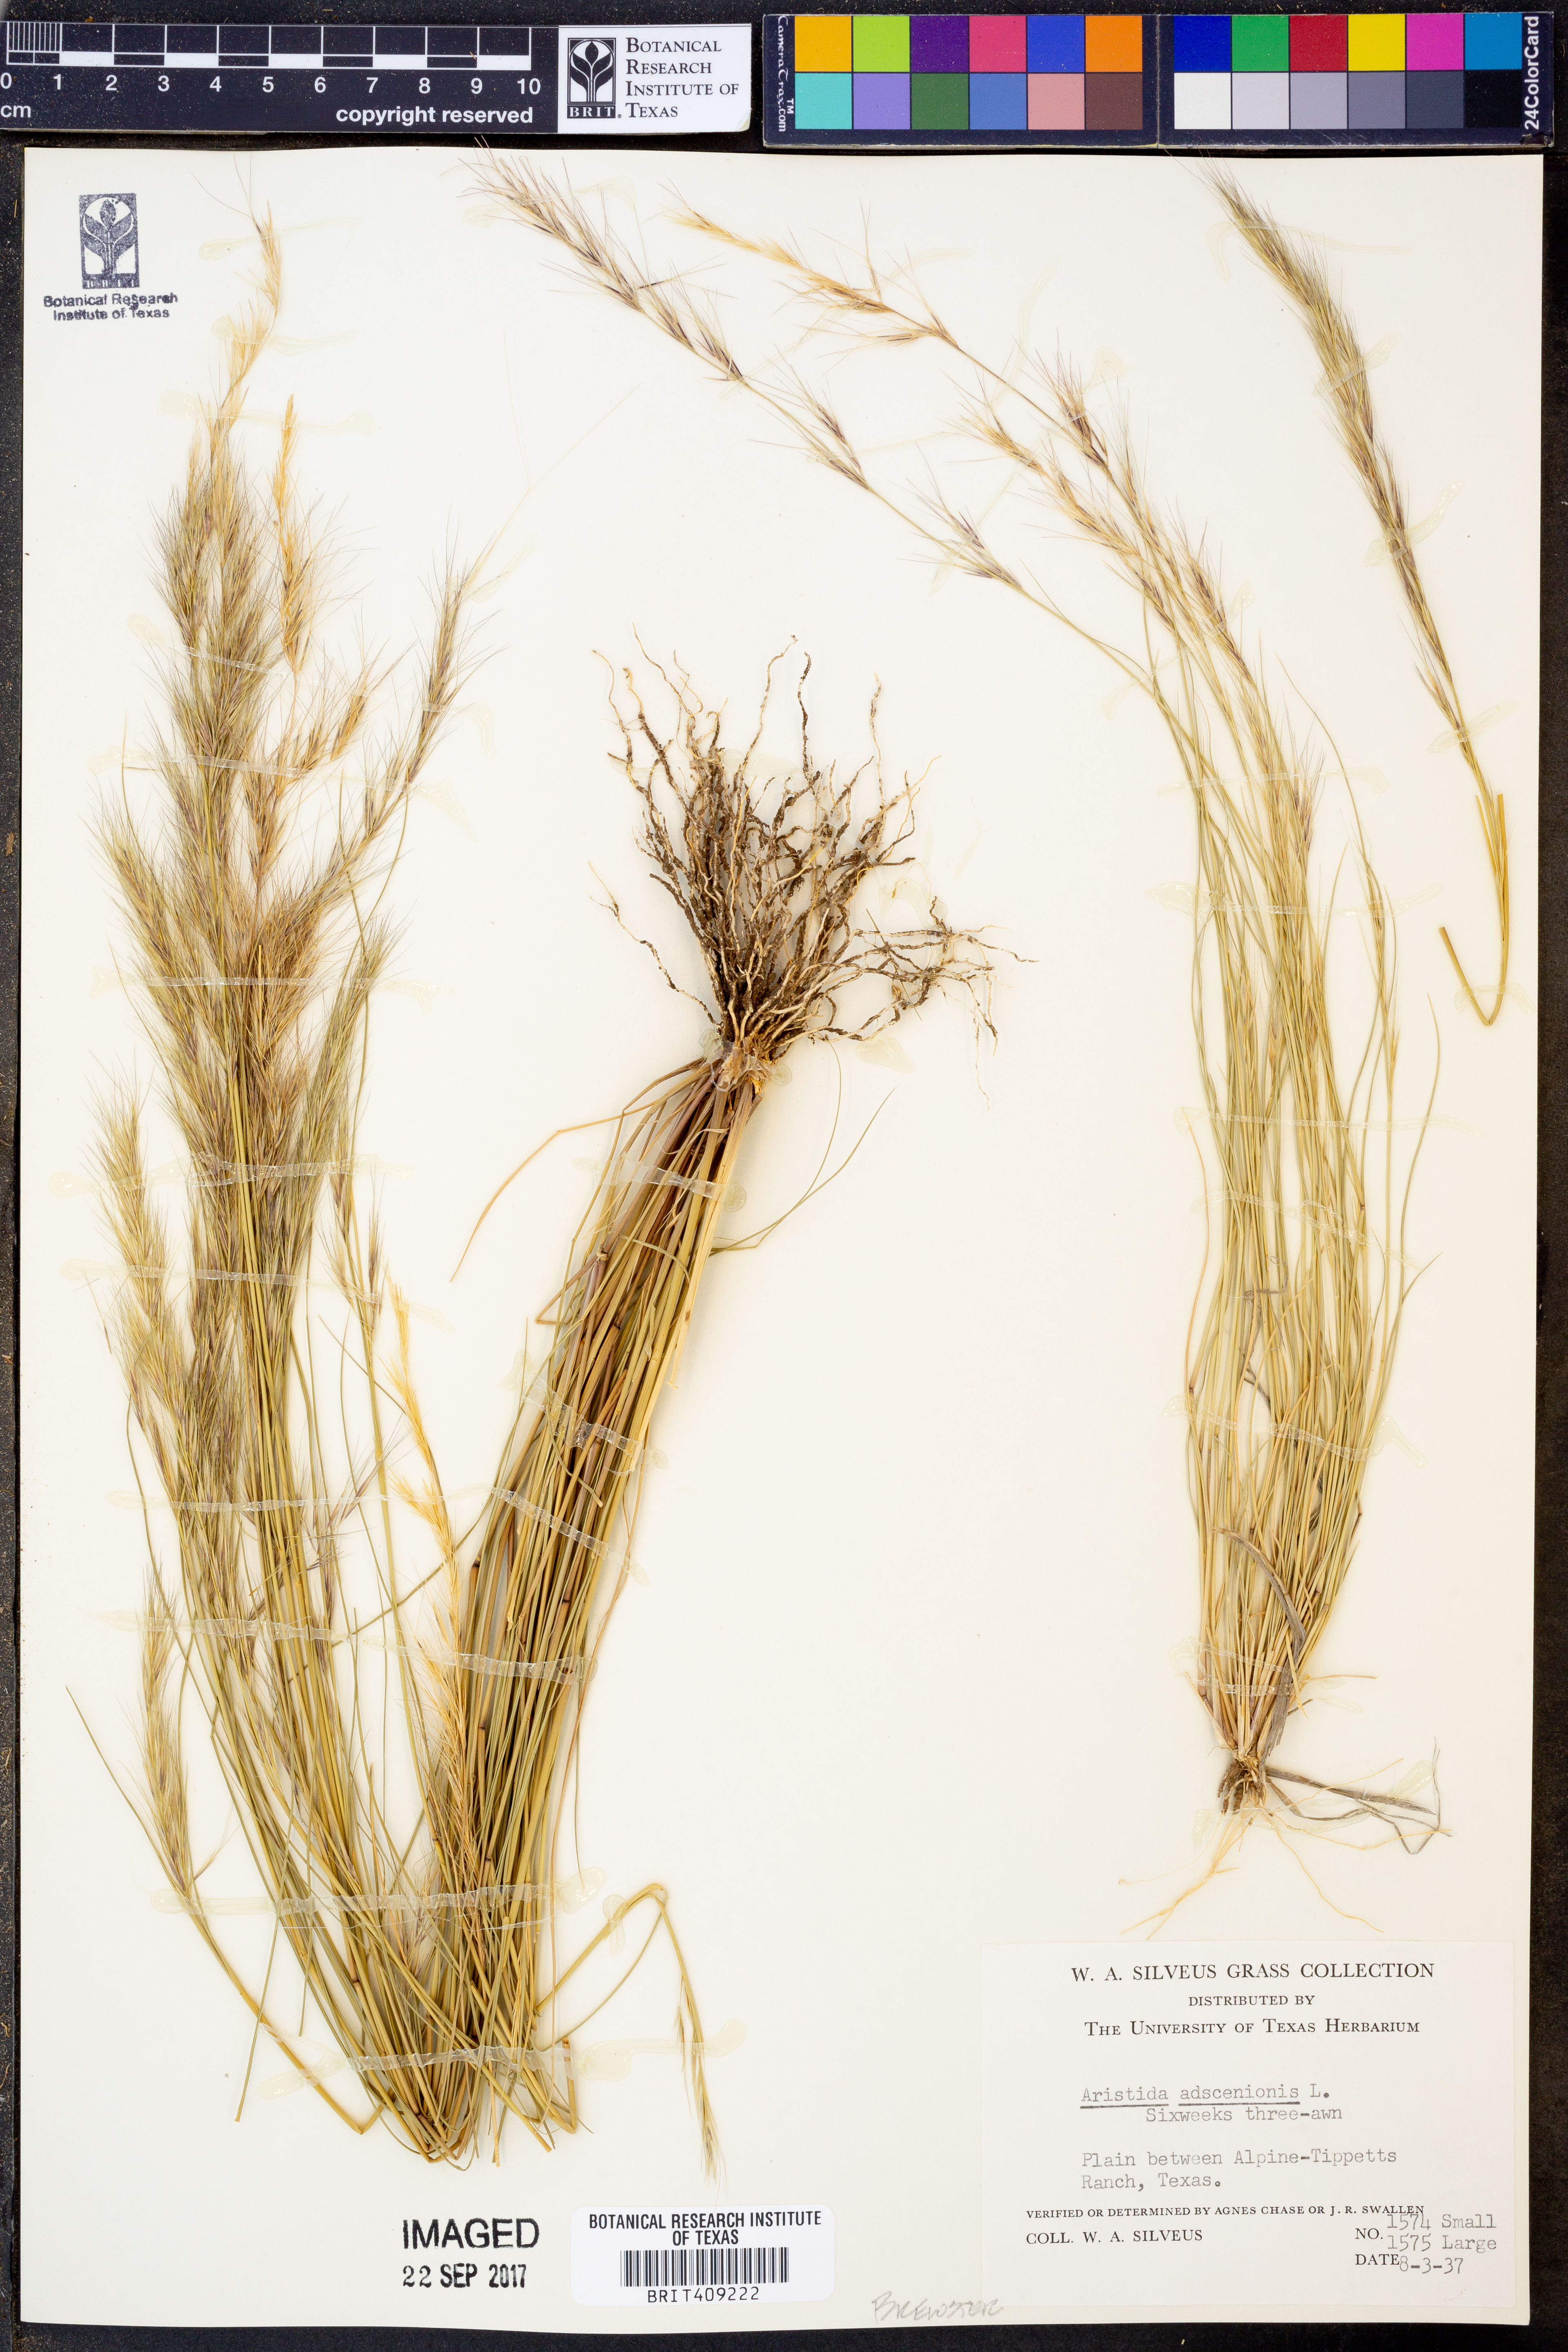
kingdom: Plantae
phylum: Tracheophyta
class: Liliopsida
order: Poales
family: Poaceae
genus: Aristida
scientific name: Aristida adscensionis
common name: Sixweeks threeawn
